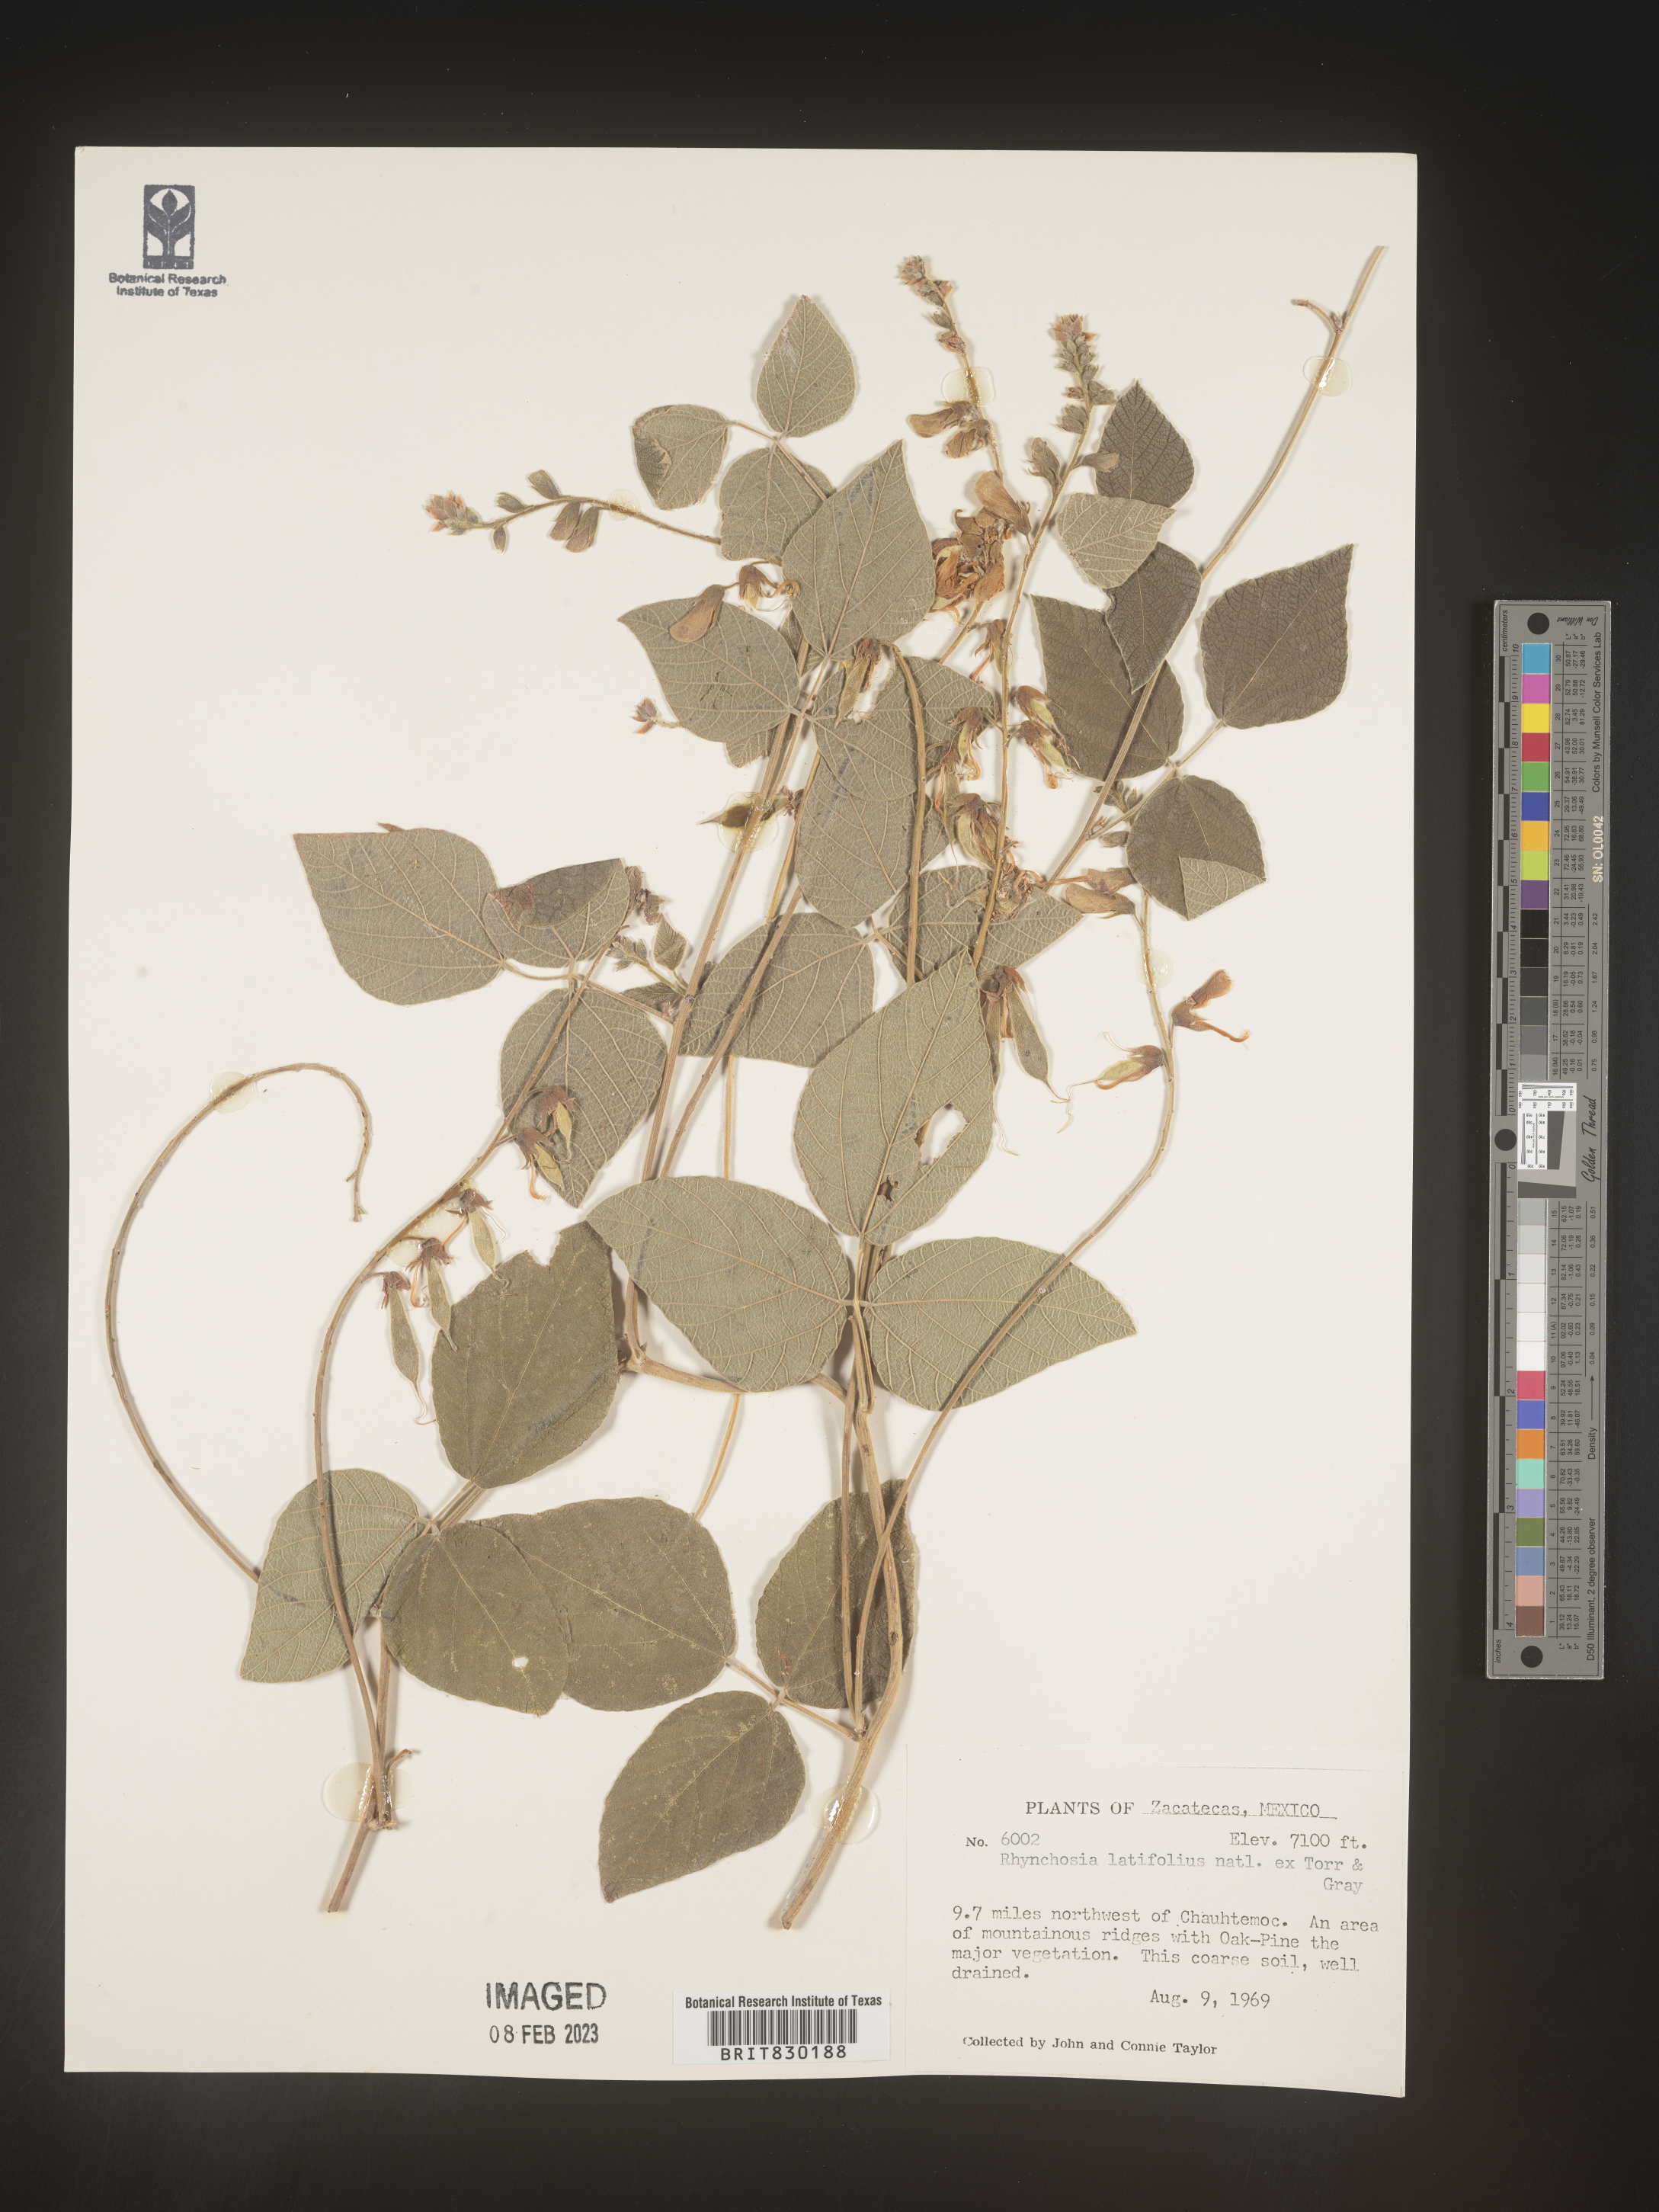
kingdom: Plantae
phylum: Tracheophyta
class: Magnoliopsida
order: Fabales
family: Fabaceae
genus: Rhynchosia
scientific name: Rhynchosia
